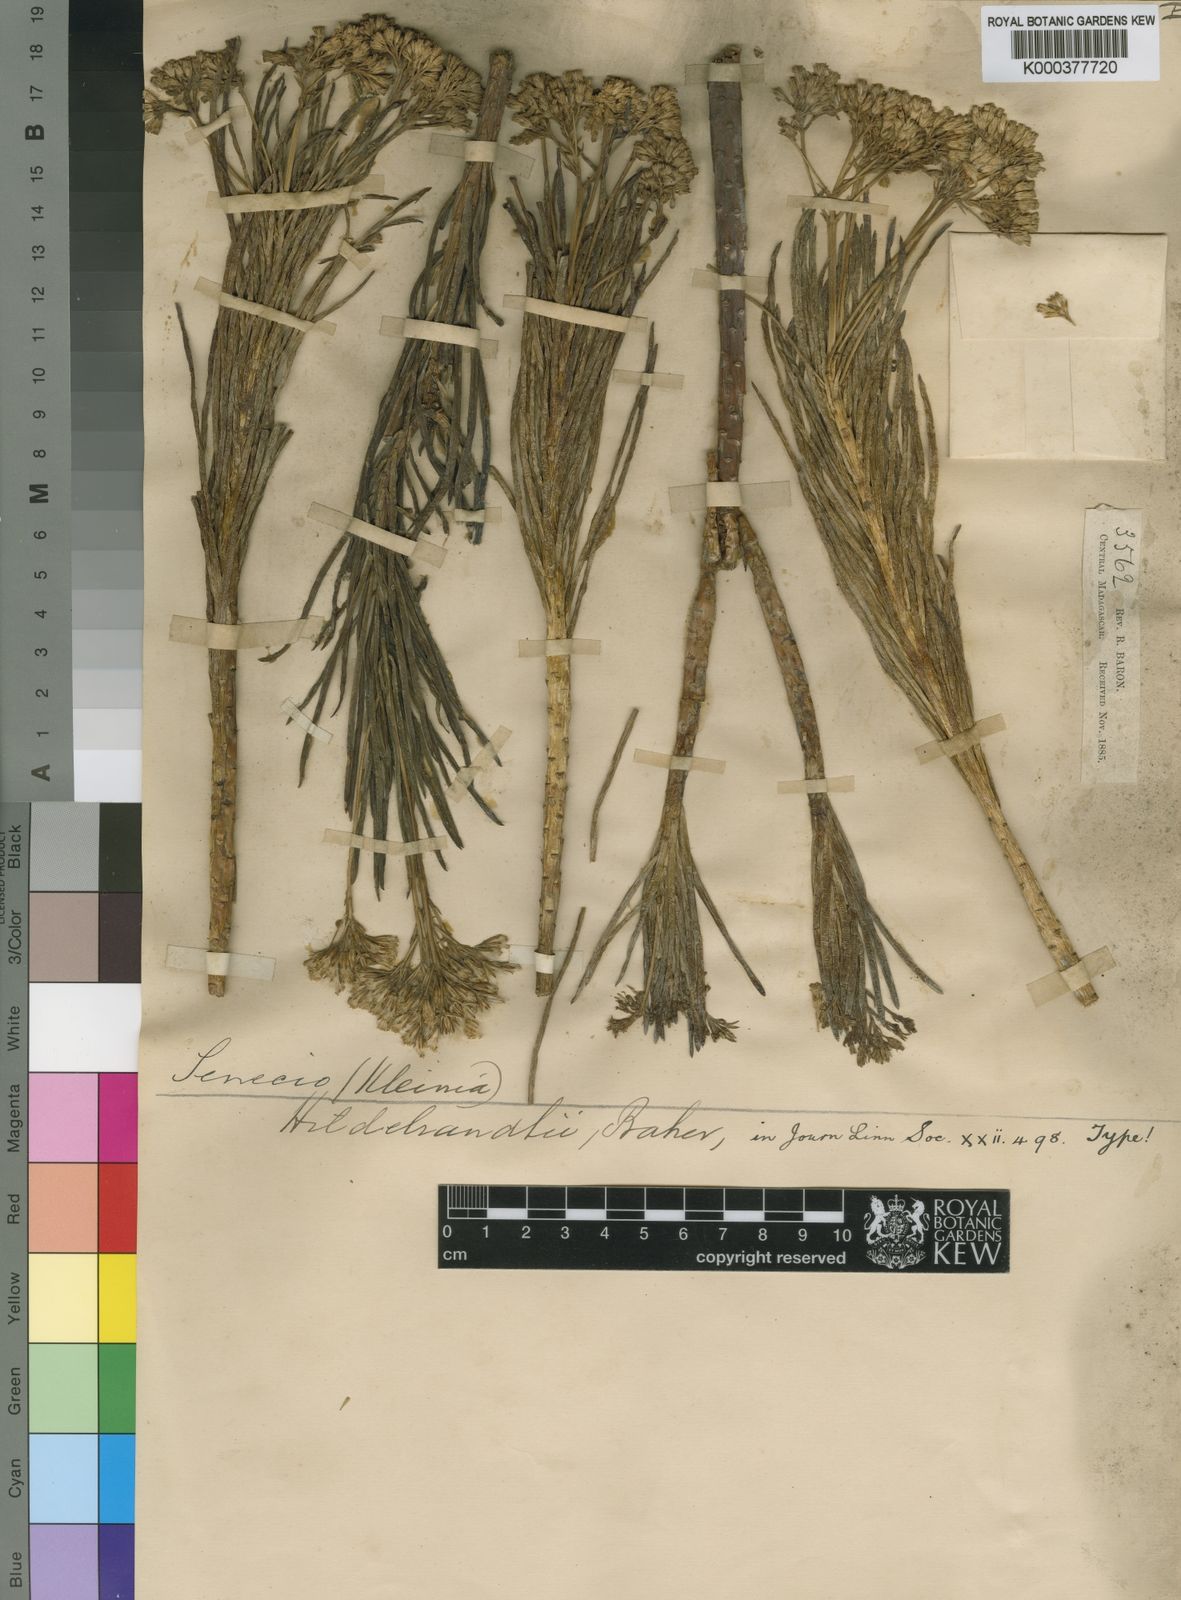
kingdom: Plantae
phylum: Tracheophyta
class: Magnoliopsida
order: Asterales
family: Asteraceae
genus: Kleinia
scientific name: Kleinia
